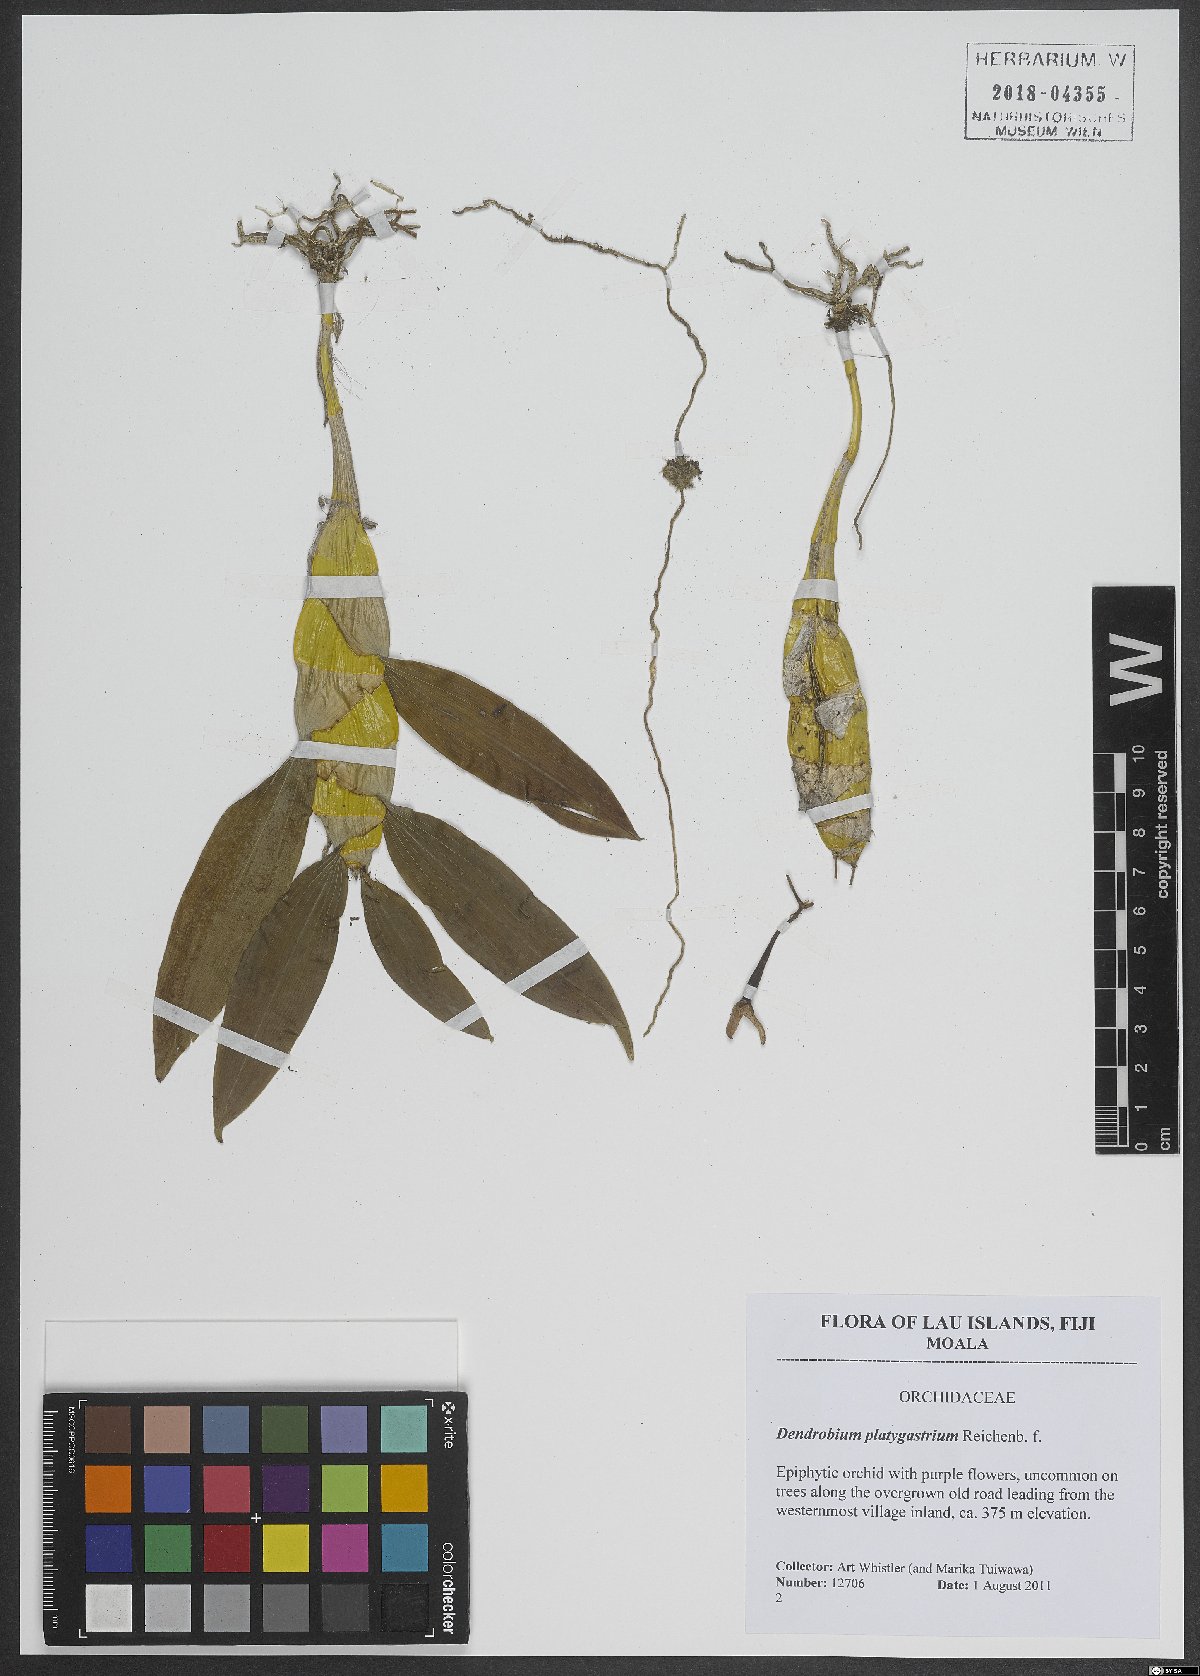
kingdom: Plantae
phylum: Tracheophyta
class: Liliopsida
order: Asparagales
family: Orchidaceae
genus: Dendrobium
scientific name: Dendrobium platygastrium
